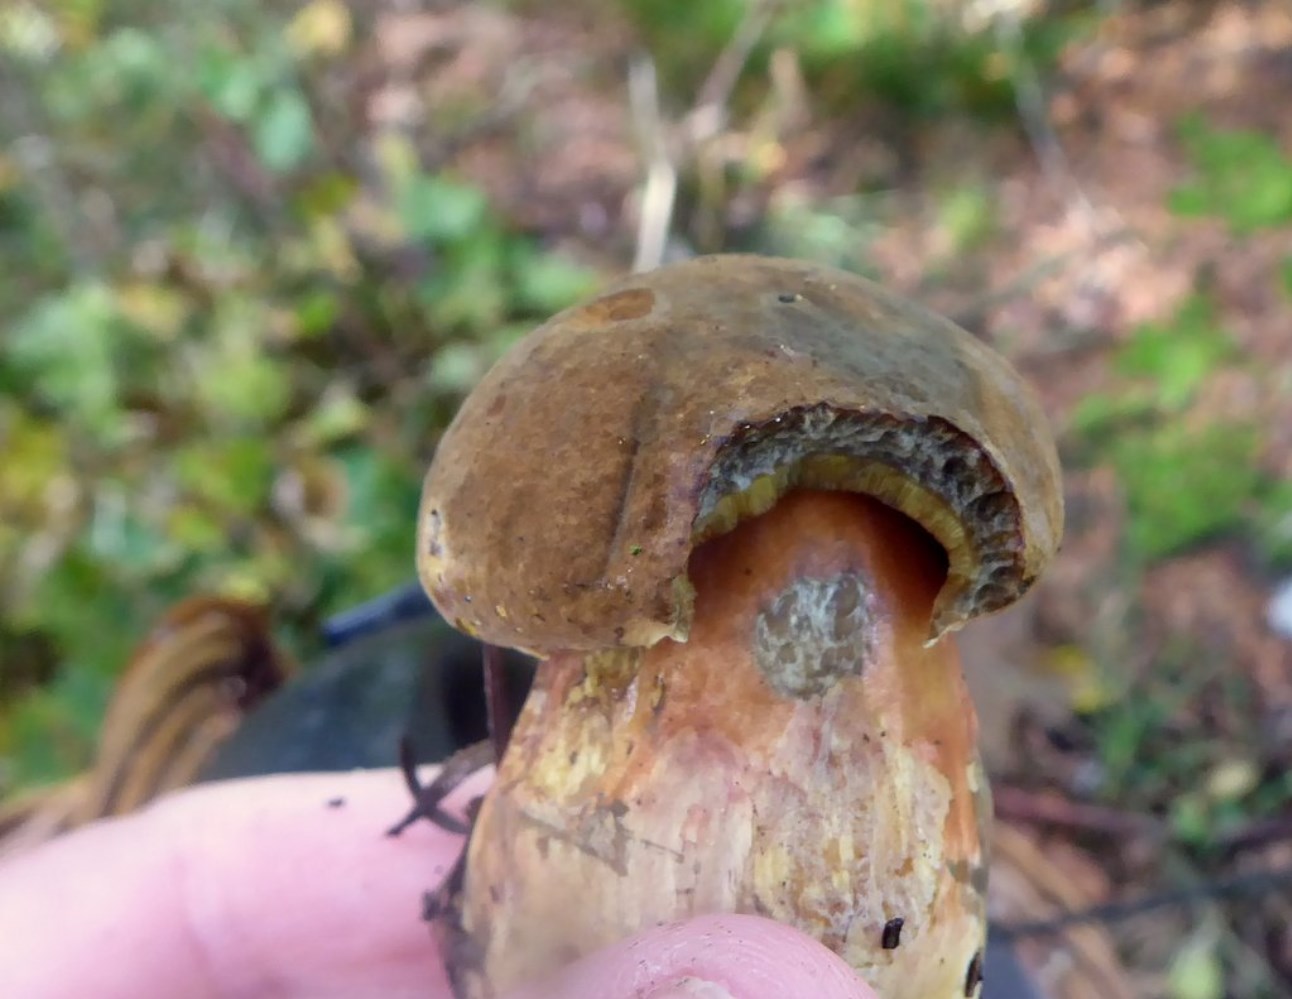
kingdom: Fungi
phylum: Basidiomycota
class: Agaricomycetes
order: Boletales
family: Boletaceae
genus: Neoboletus
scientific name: Neoboletus erythropus
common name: punktstokket indigorørhat
